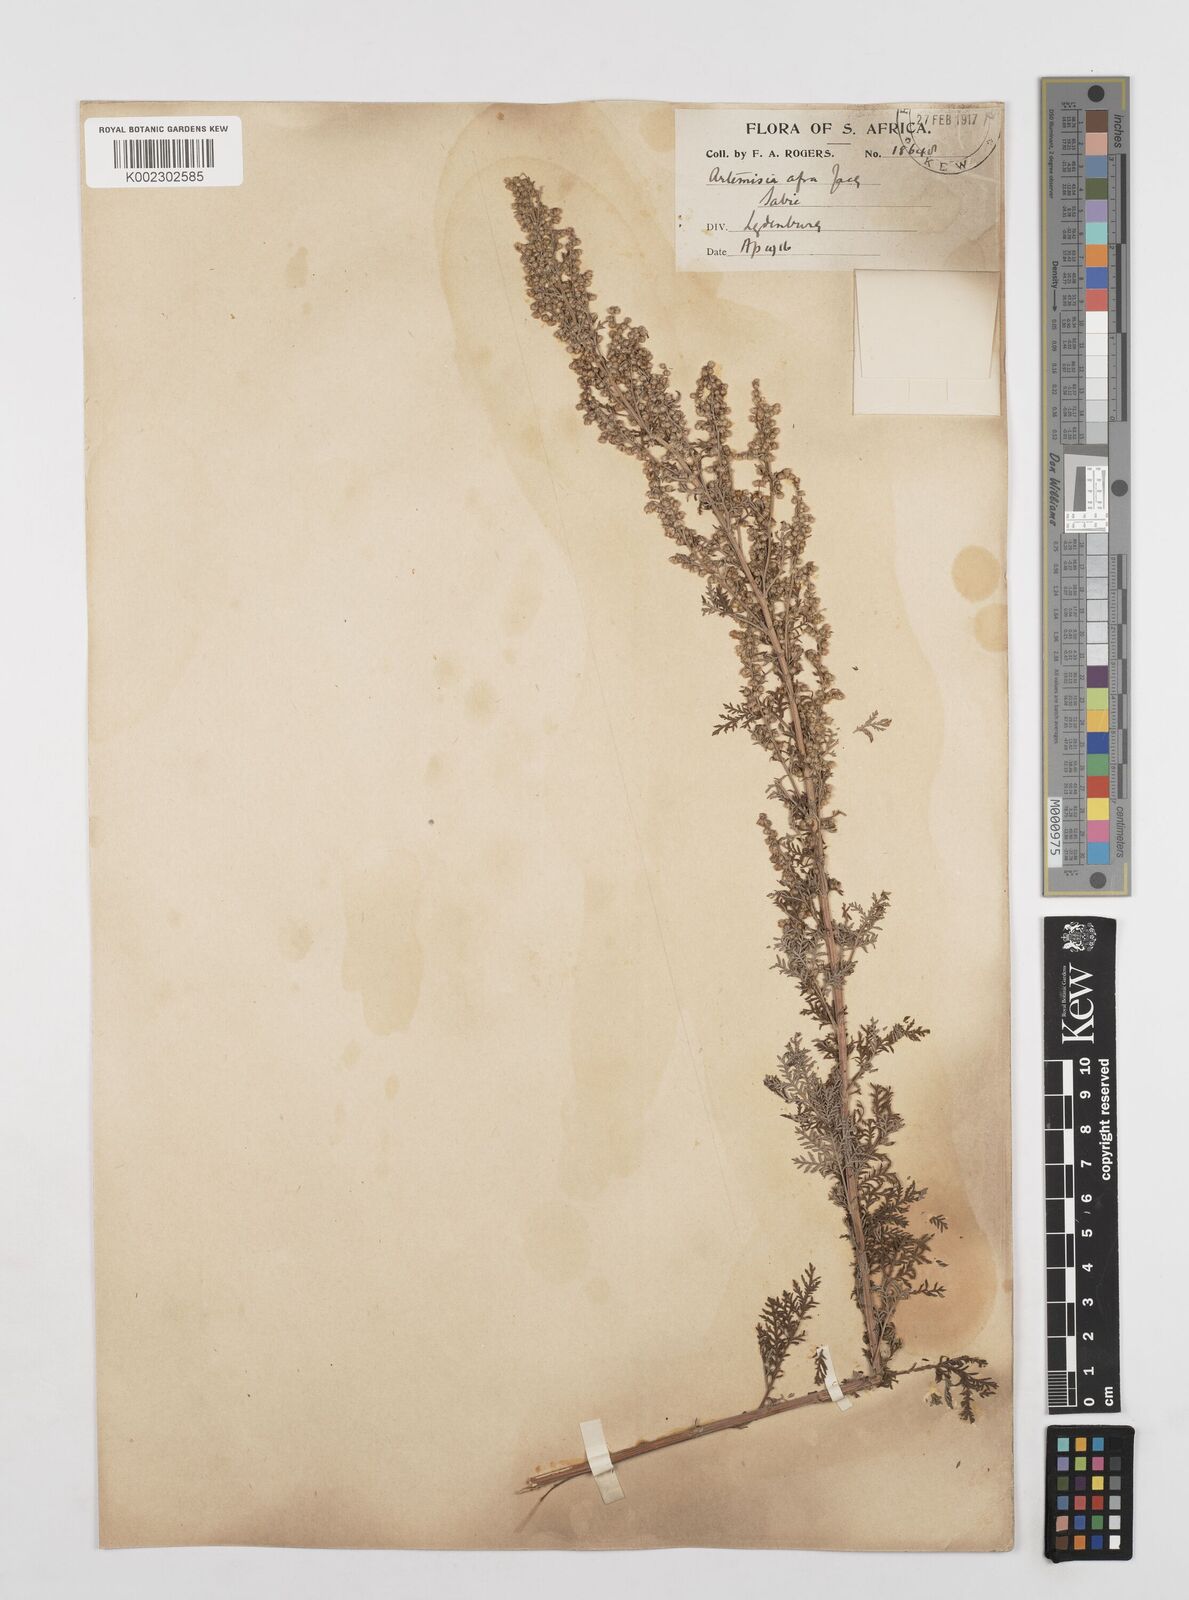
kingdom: Plantae
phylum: Tracheophyta
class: Magnoliopsida
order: Asterales
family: Asteraceae
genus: Artemisia
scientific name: Artemisia afra
